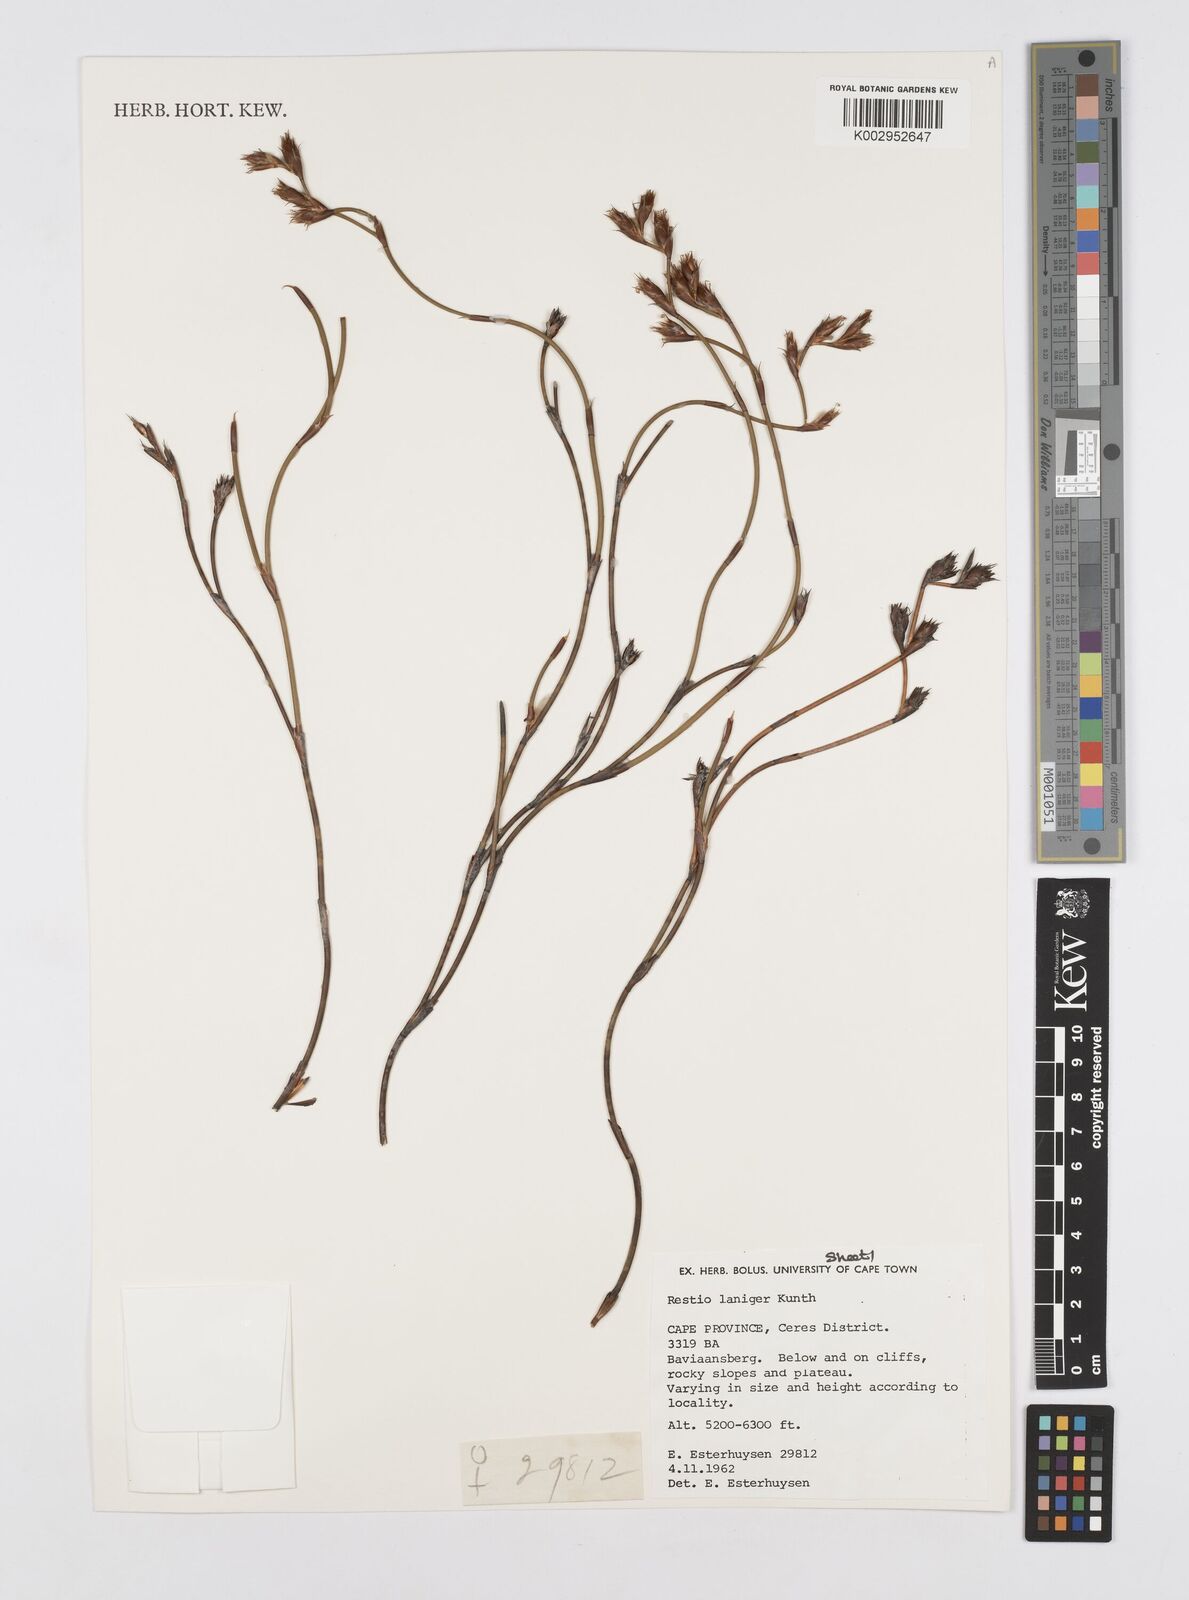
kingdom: Plantae
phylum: Tracheophyta
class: Liliopsida
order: Poales
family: Restionaceae
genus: Restio
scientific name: Restio laniger
